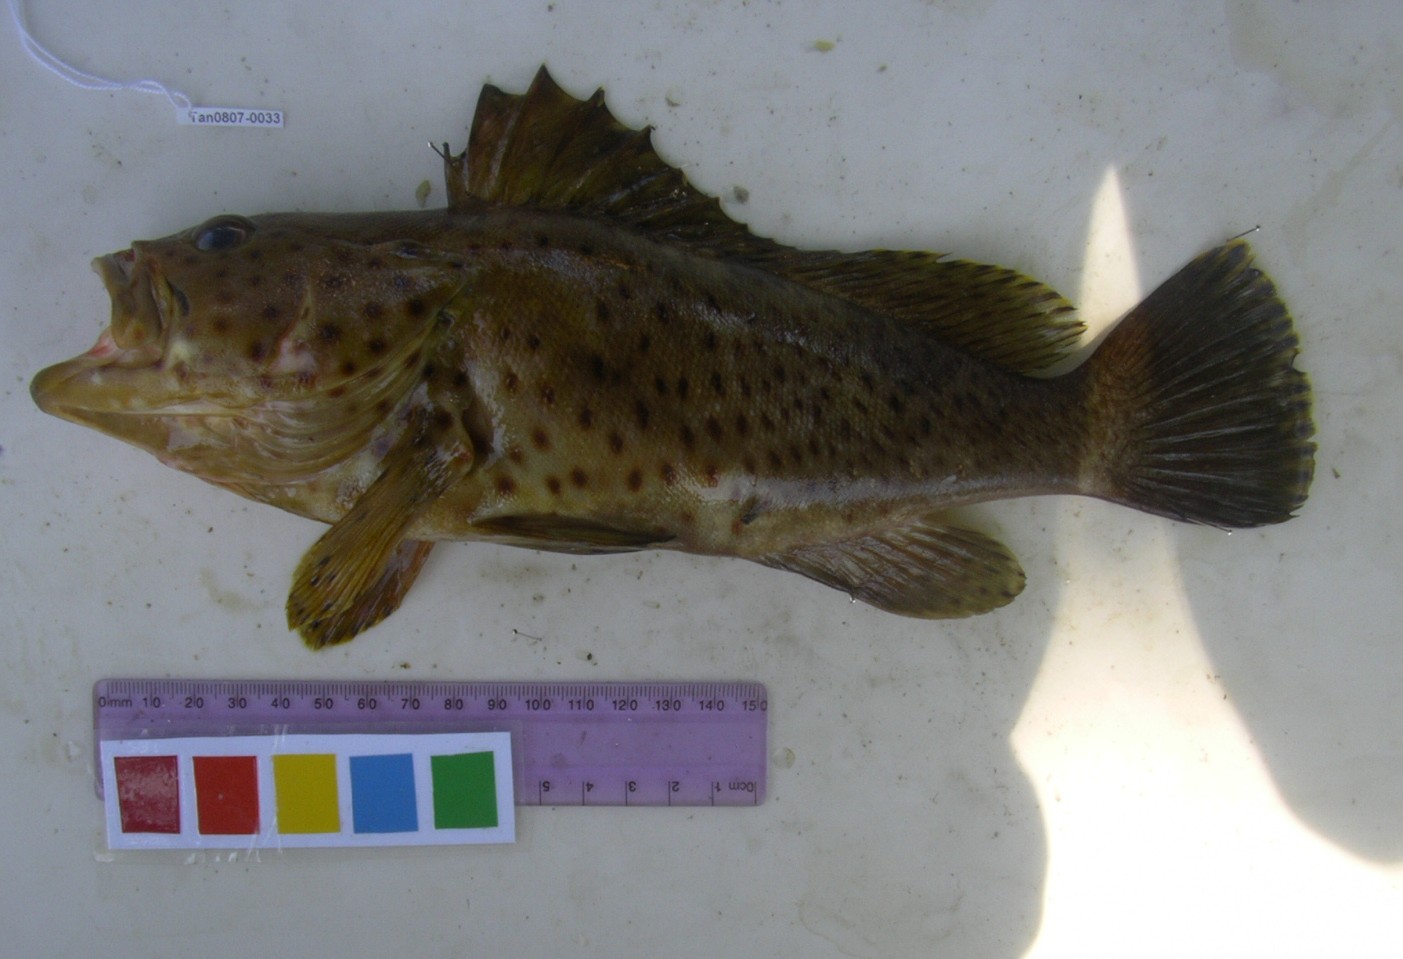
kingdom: Animalia
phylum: Chordata
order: Perciformes
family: Serranidae
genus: Epinephelus
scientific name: Epinephelus tauvina
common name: Greasy grouper
